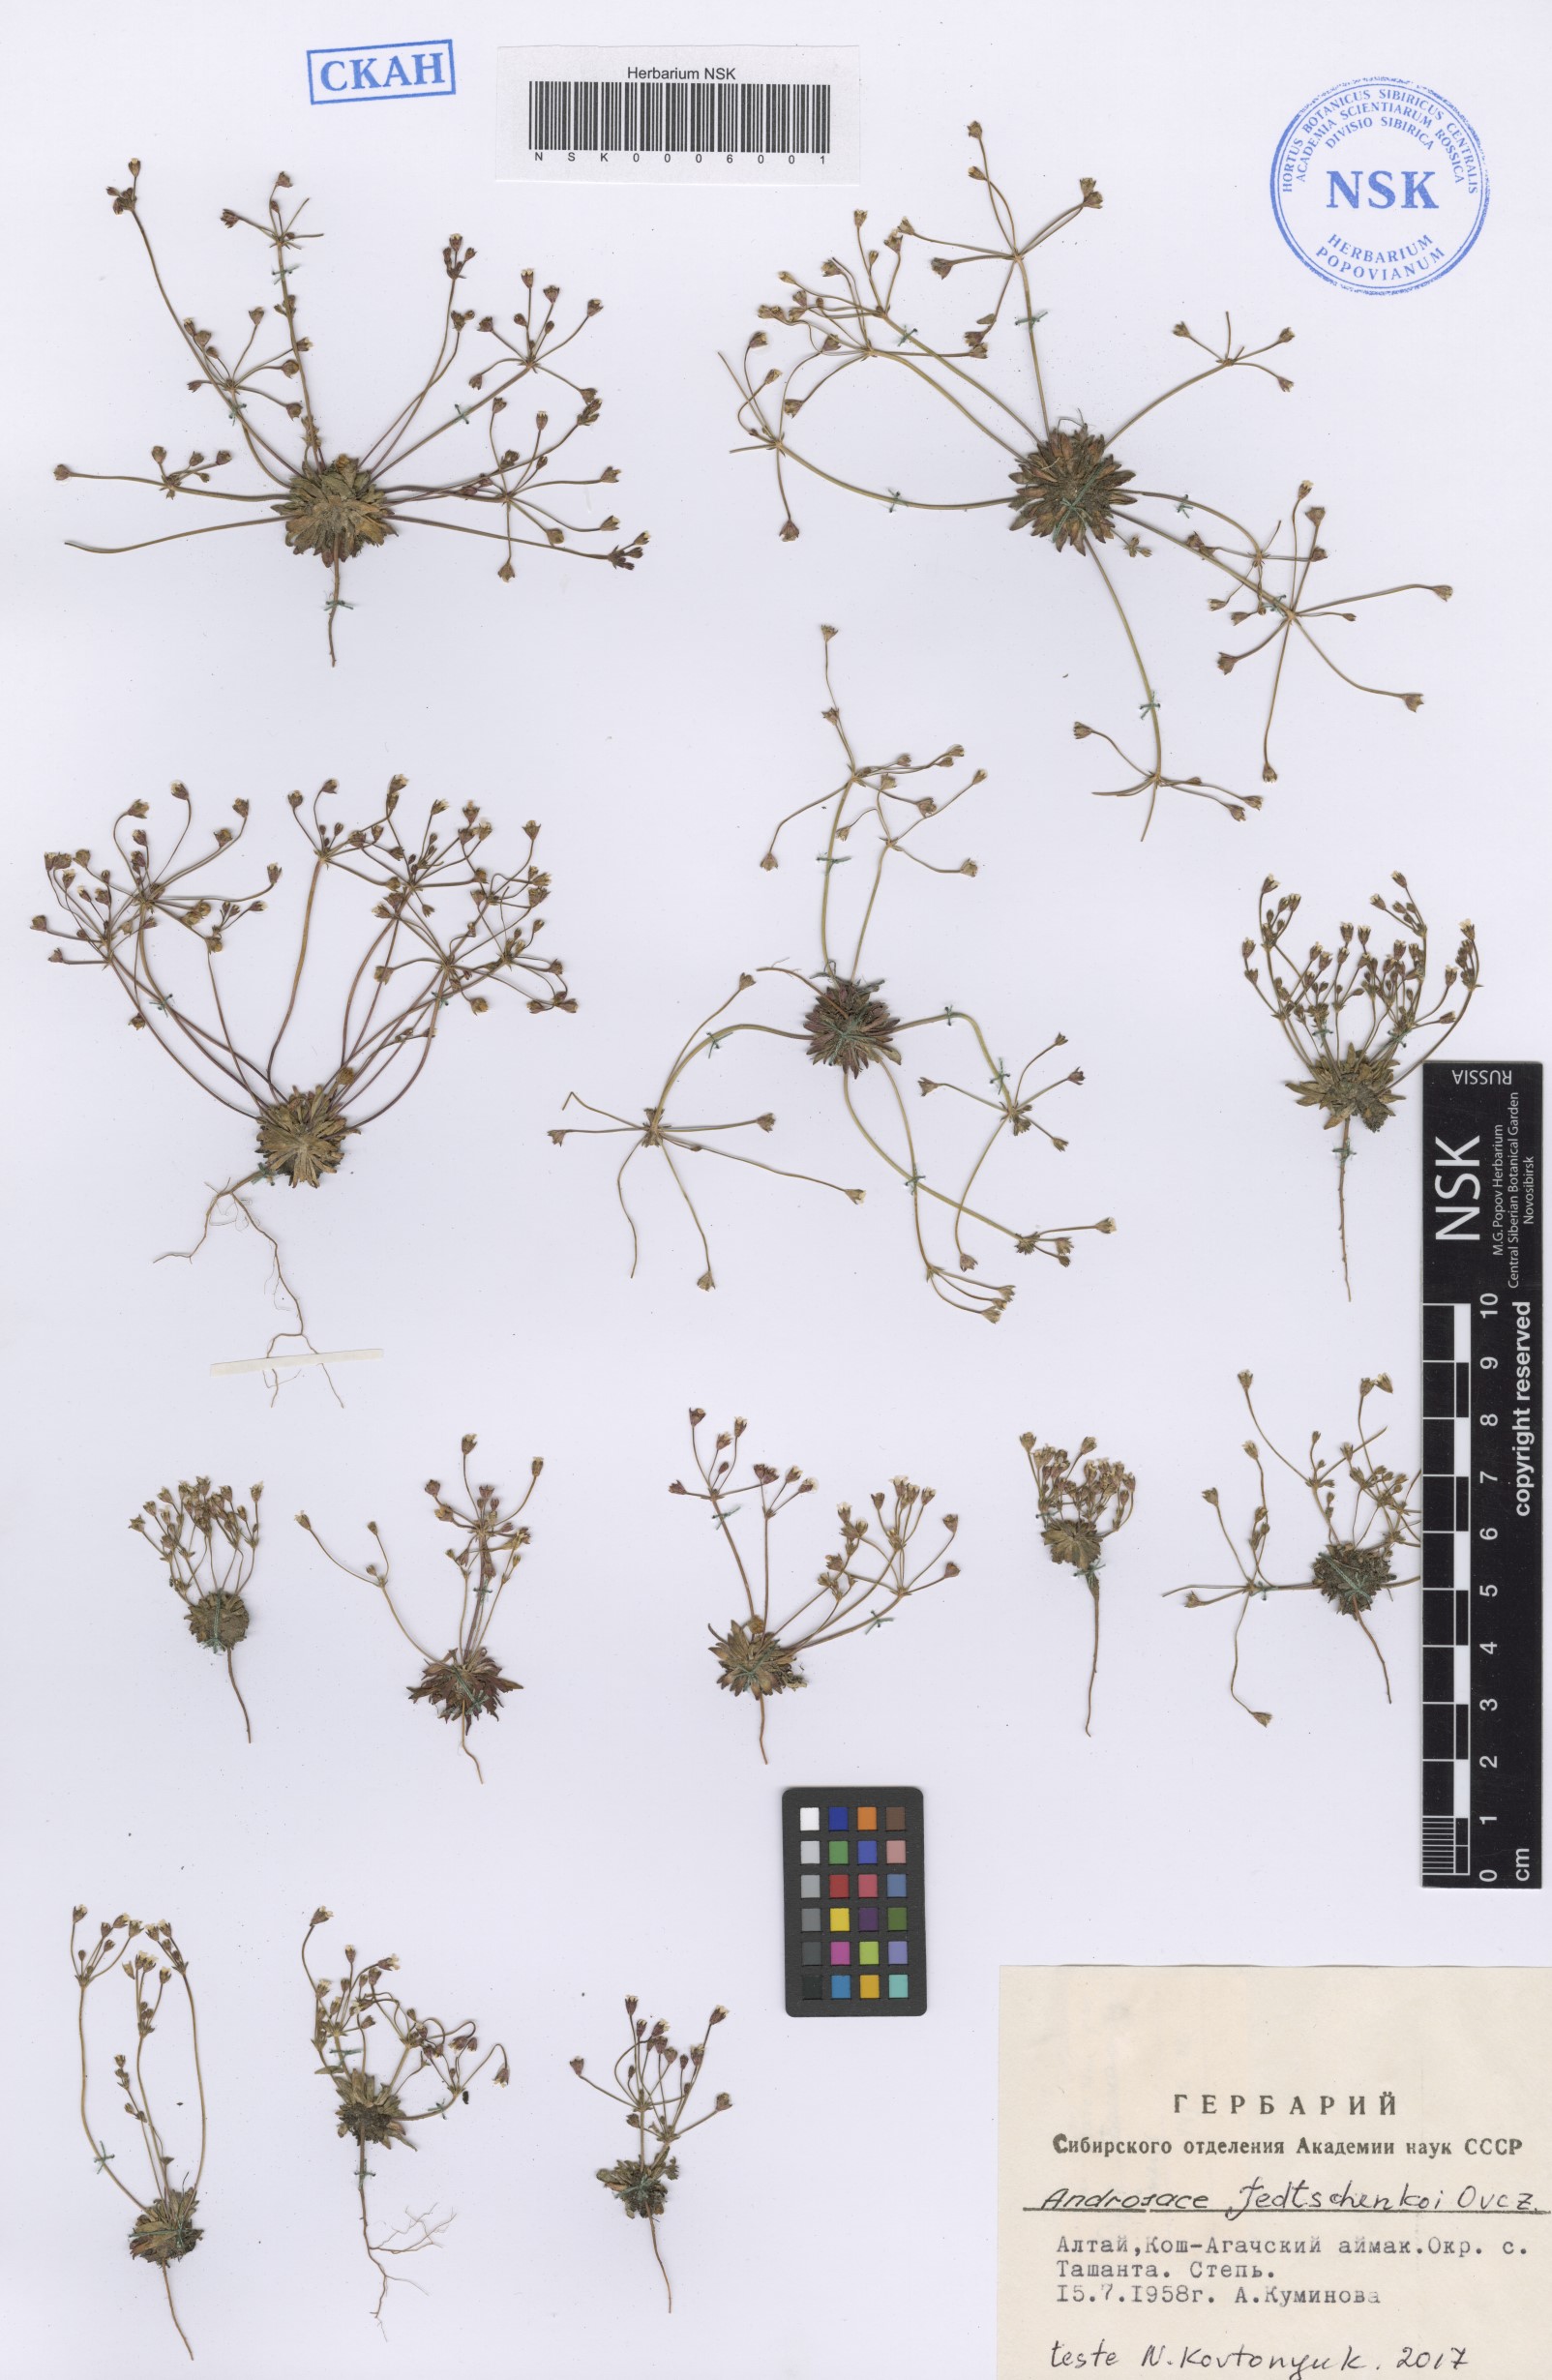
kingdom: Plantae
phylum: Tracheophyta
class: Magnoliopsida
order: Ericales
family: Primulaceae
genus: Androsace
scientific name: Androsace fedtschenkoi
